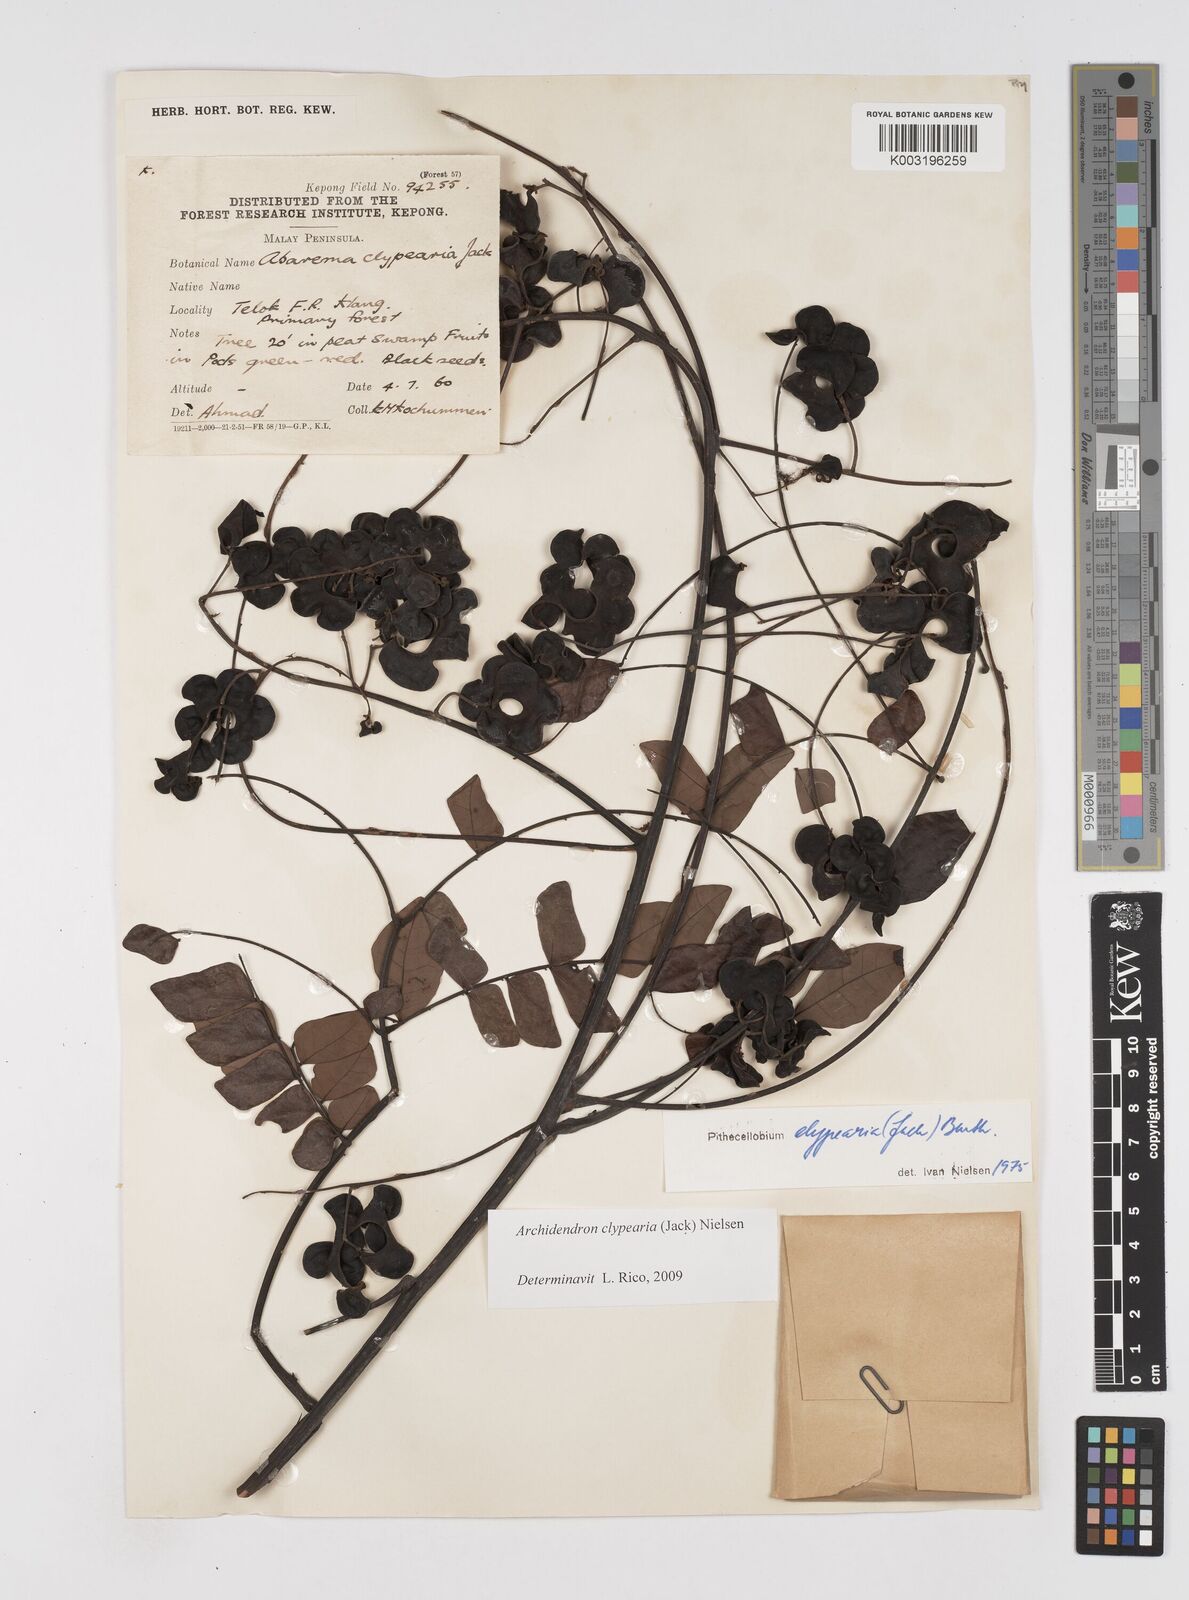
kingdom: Plantae
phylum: Tracheophyta
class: Magnoliopsida
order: Fabales
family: Fabaceae
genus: Archidendron
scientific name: Archidendron clypearia
